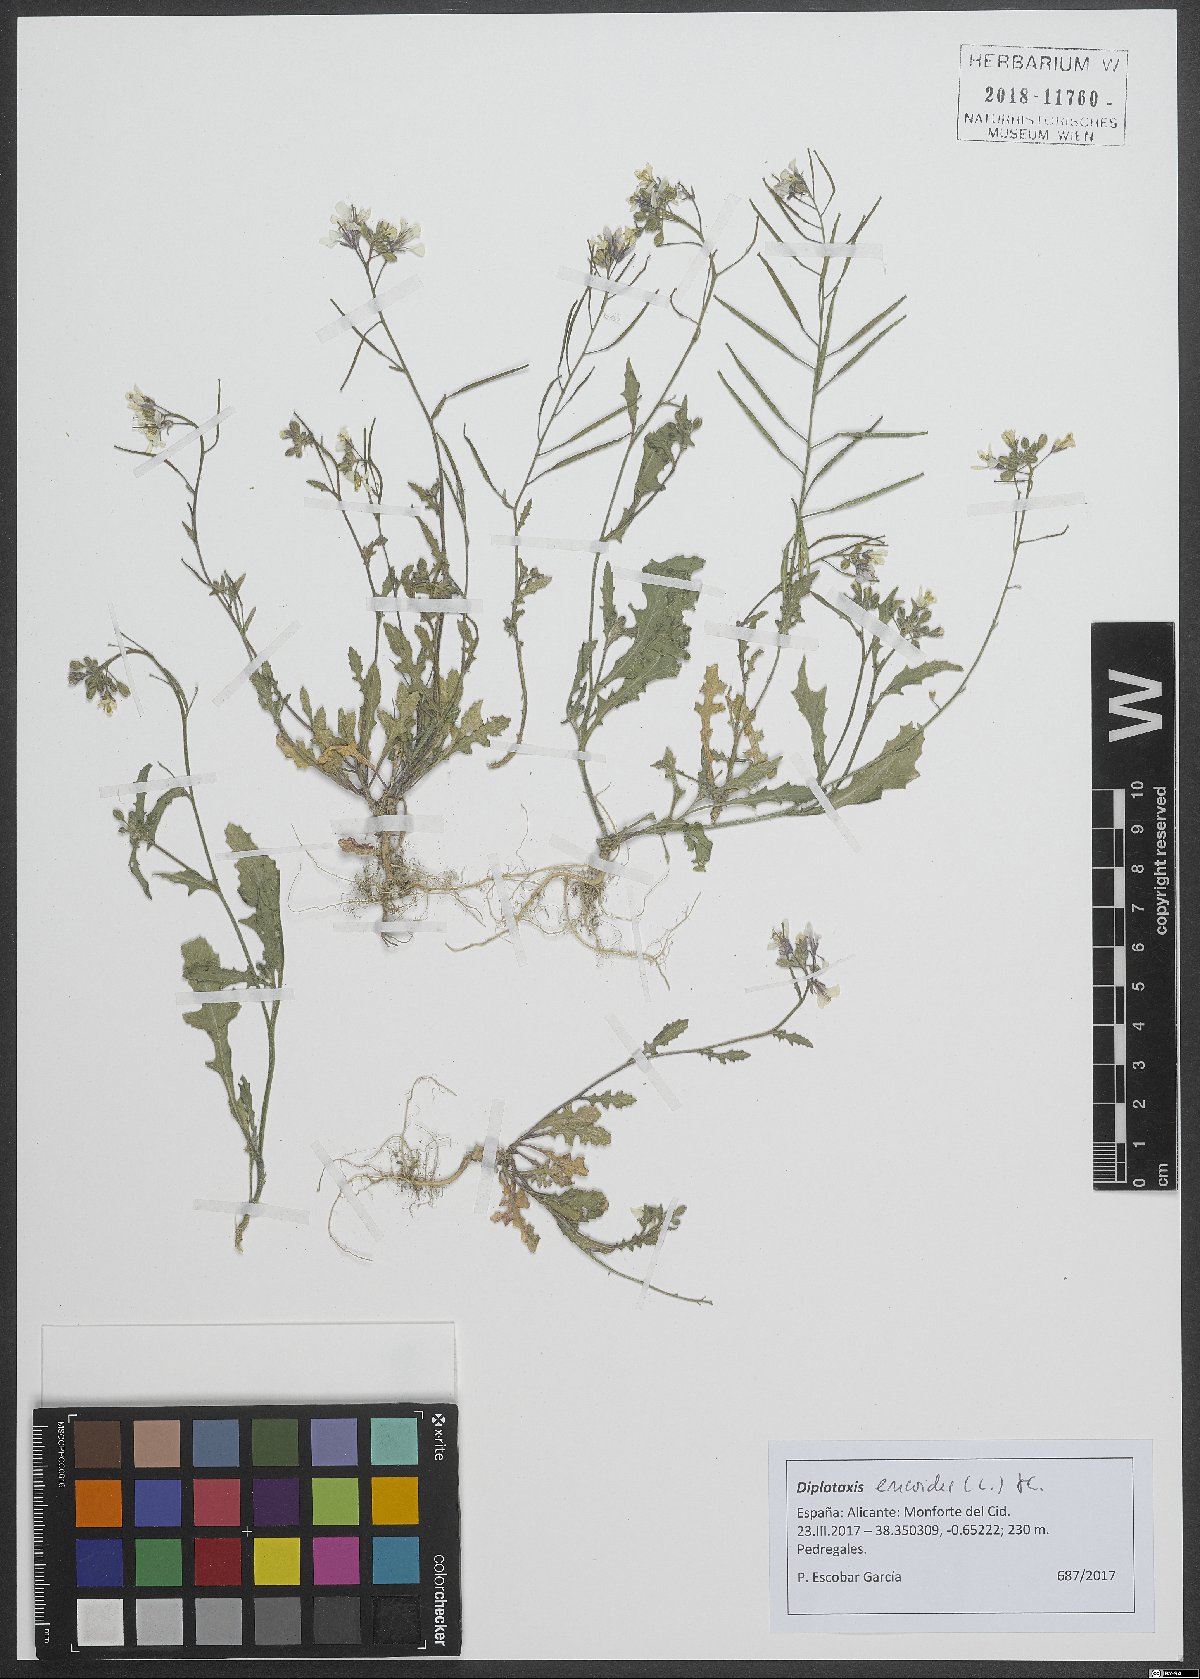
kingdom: Plantae
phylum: Tracheophyta
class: Magnoliopsida
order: Brassicales
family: Brassicaceae
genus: Diplotaxis
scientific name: Diplotaxis erucoides
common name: White rocket
